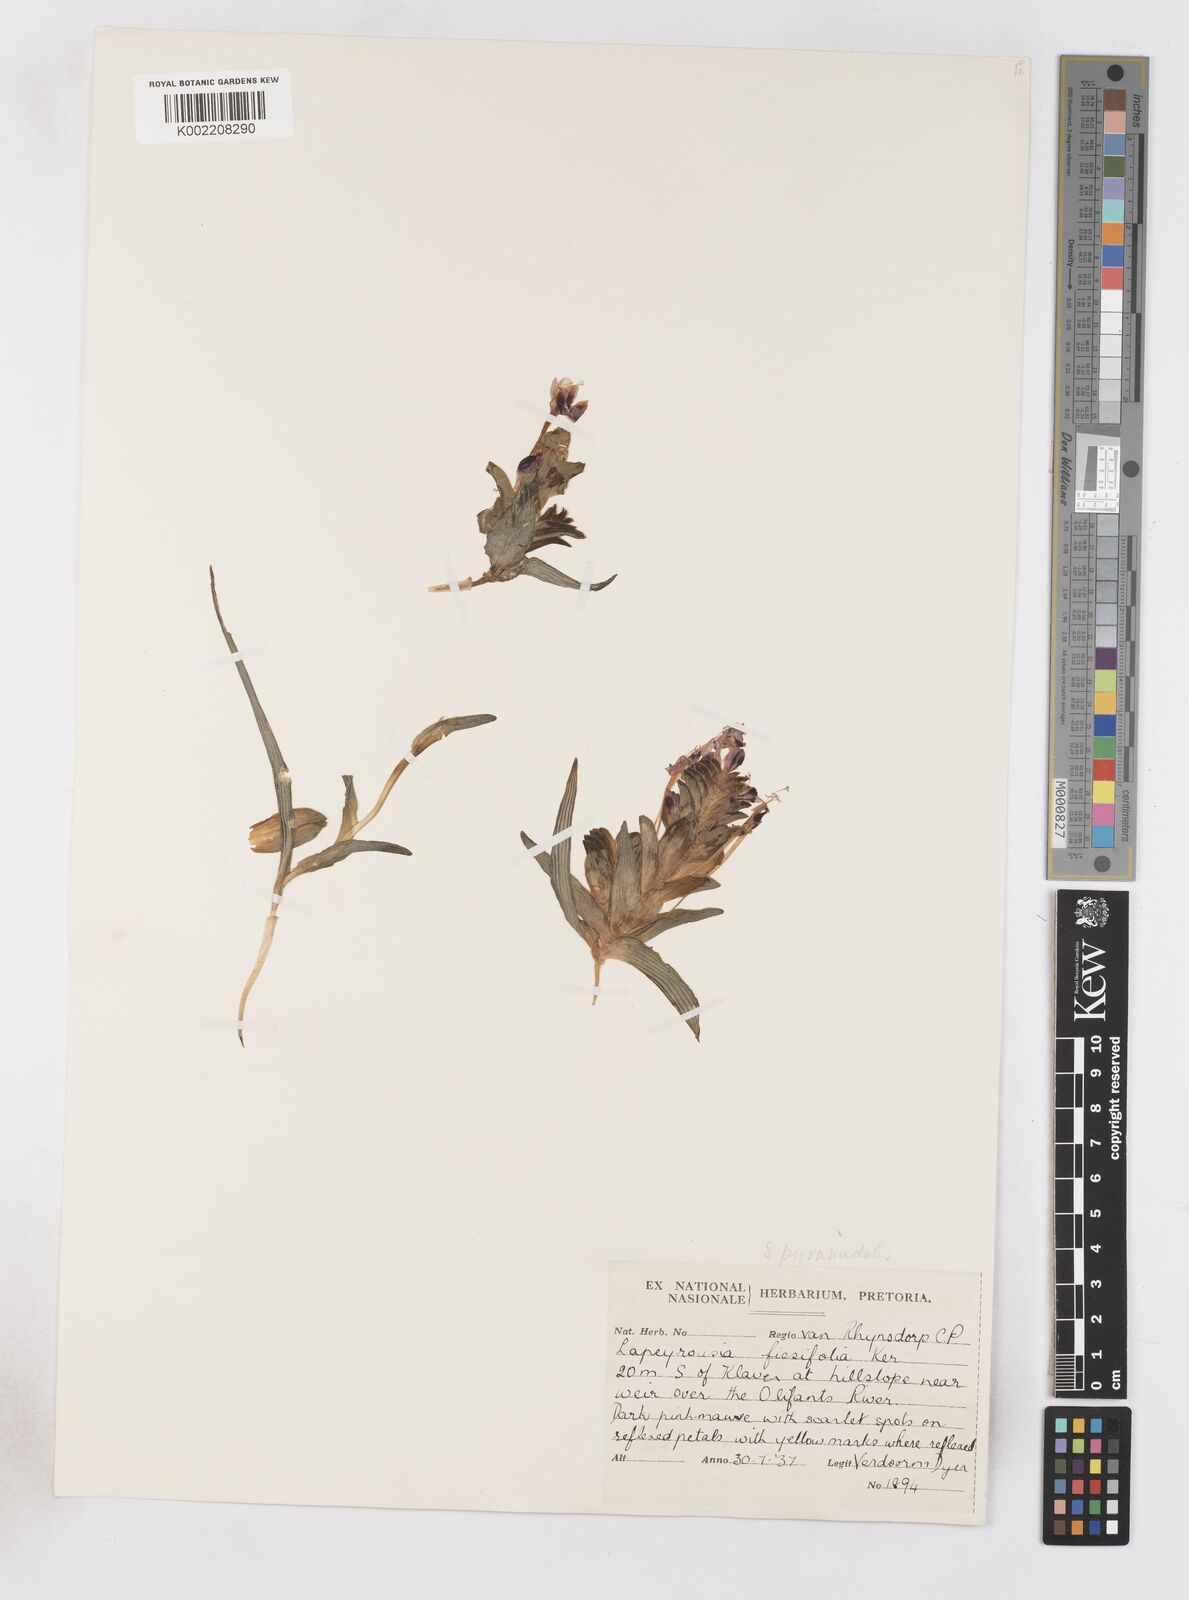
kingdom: Plantae
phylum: Tracheophyta
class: Liliopsida
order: Asparagales
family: Iridaceae
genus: Lapeirousia
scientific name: Lapeirousia pyramidalis
